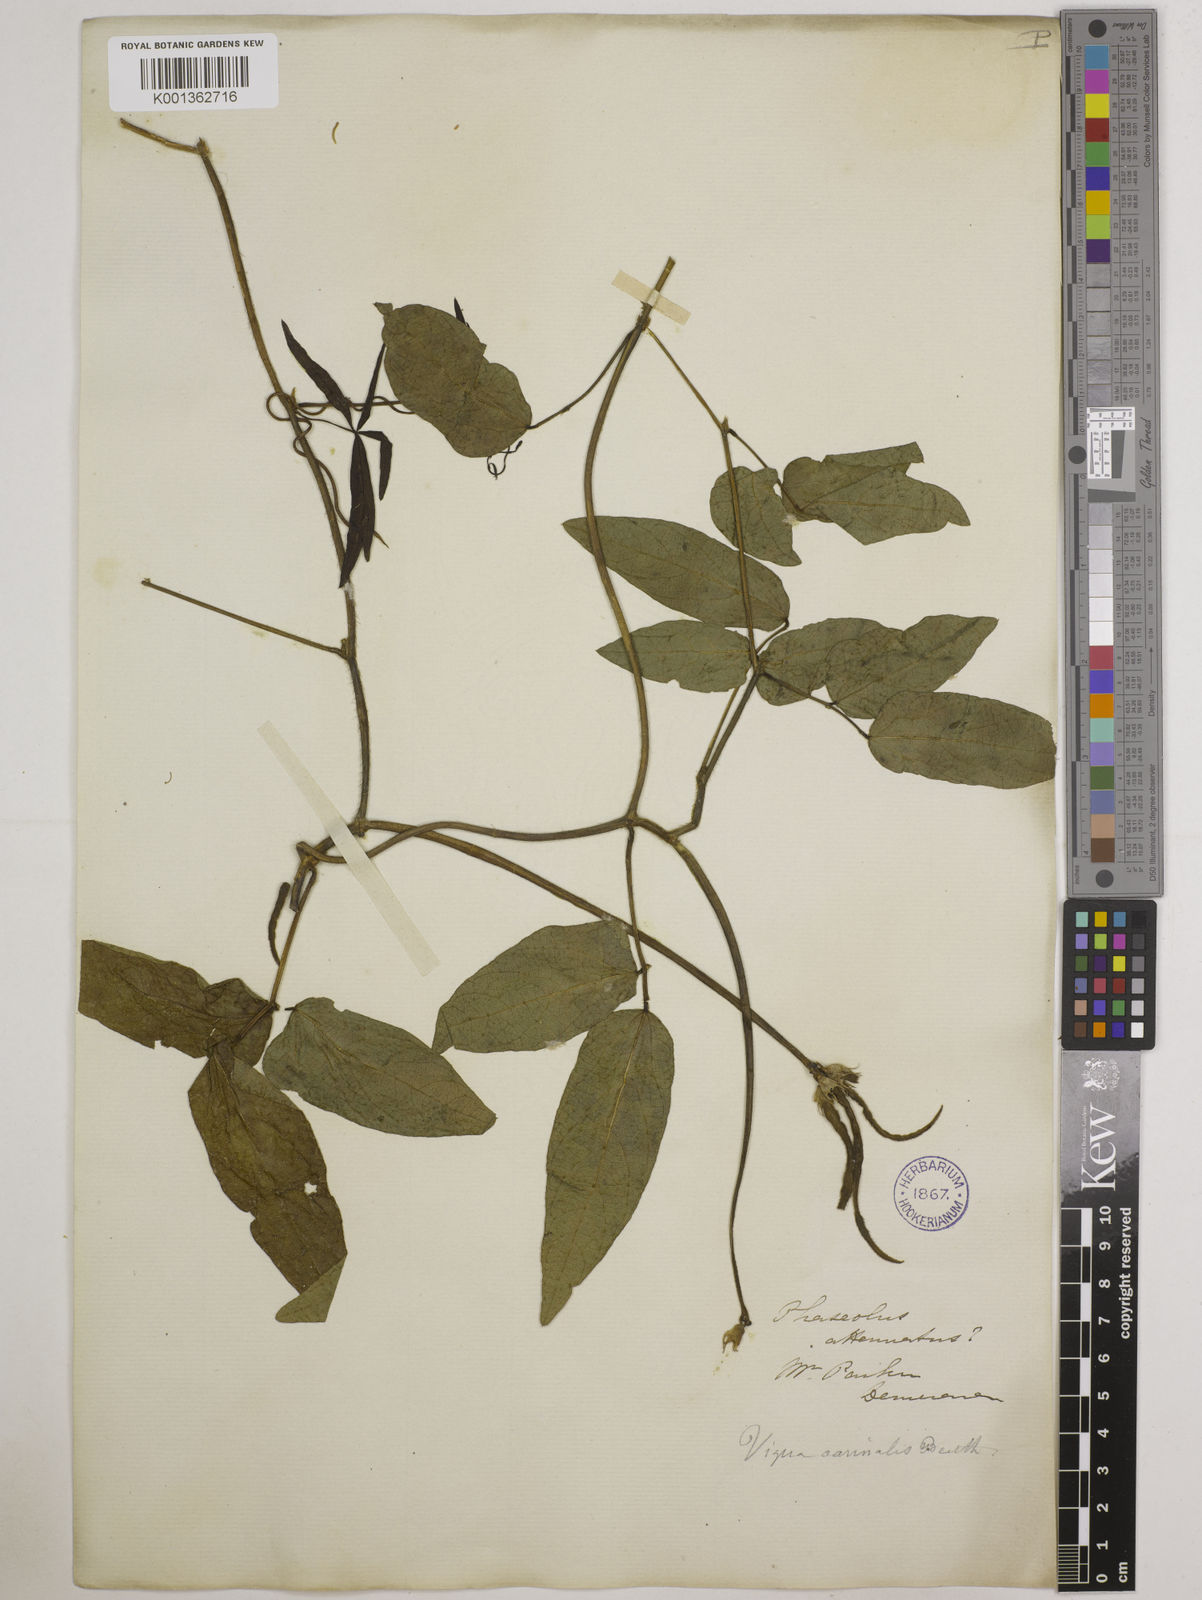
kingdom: Plantae
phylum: Tracheophyta
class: Magnoliopsida
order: Fabales
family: Fabaceae
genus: Vigna
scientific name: Vigna vexillata
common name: Zombi pea
